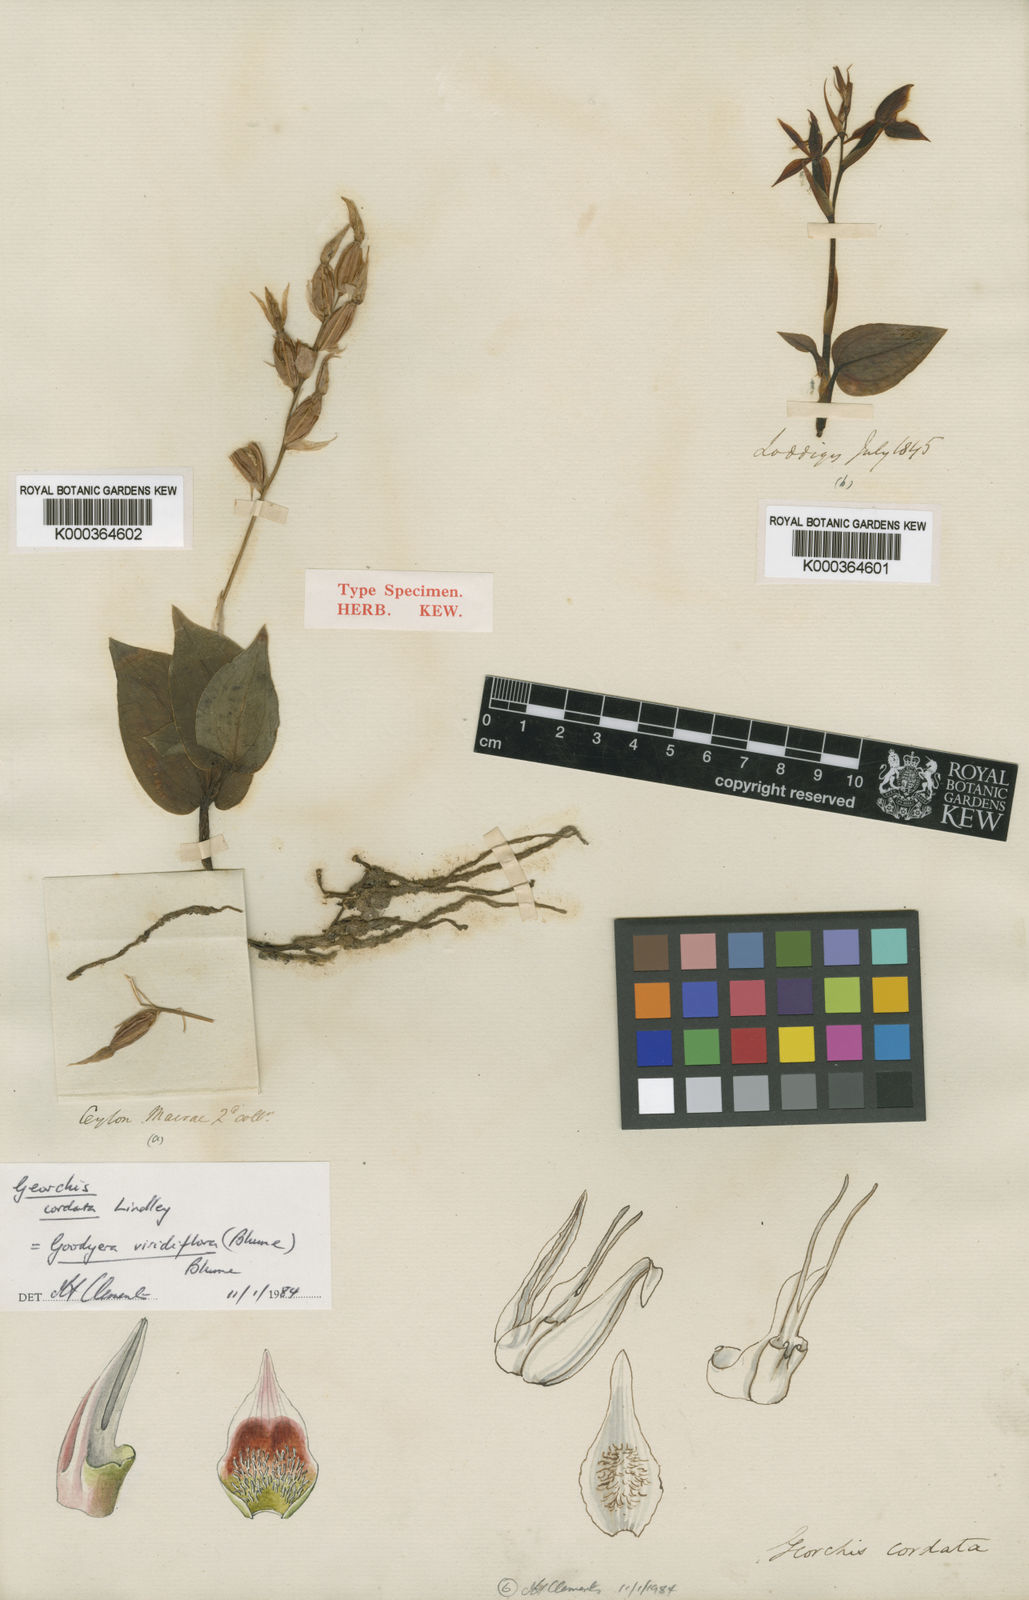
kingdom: Plantae
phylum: Tracheophyta
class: Liliopsida
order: Asparagales
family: Orchidaceae
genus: Goodyera
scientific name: Goodyera viridiflora
